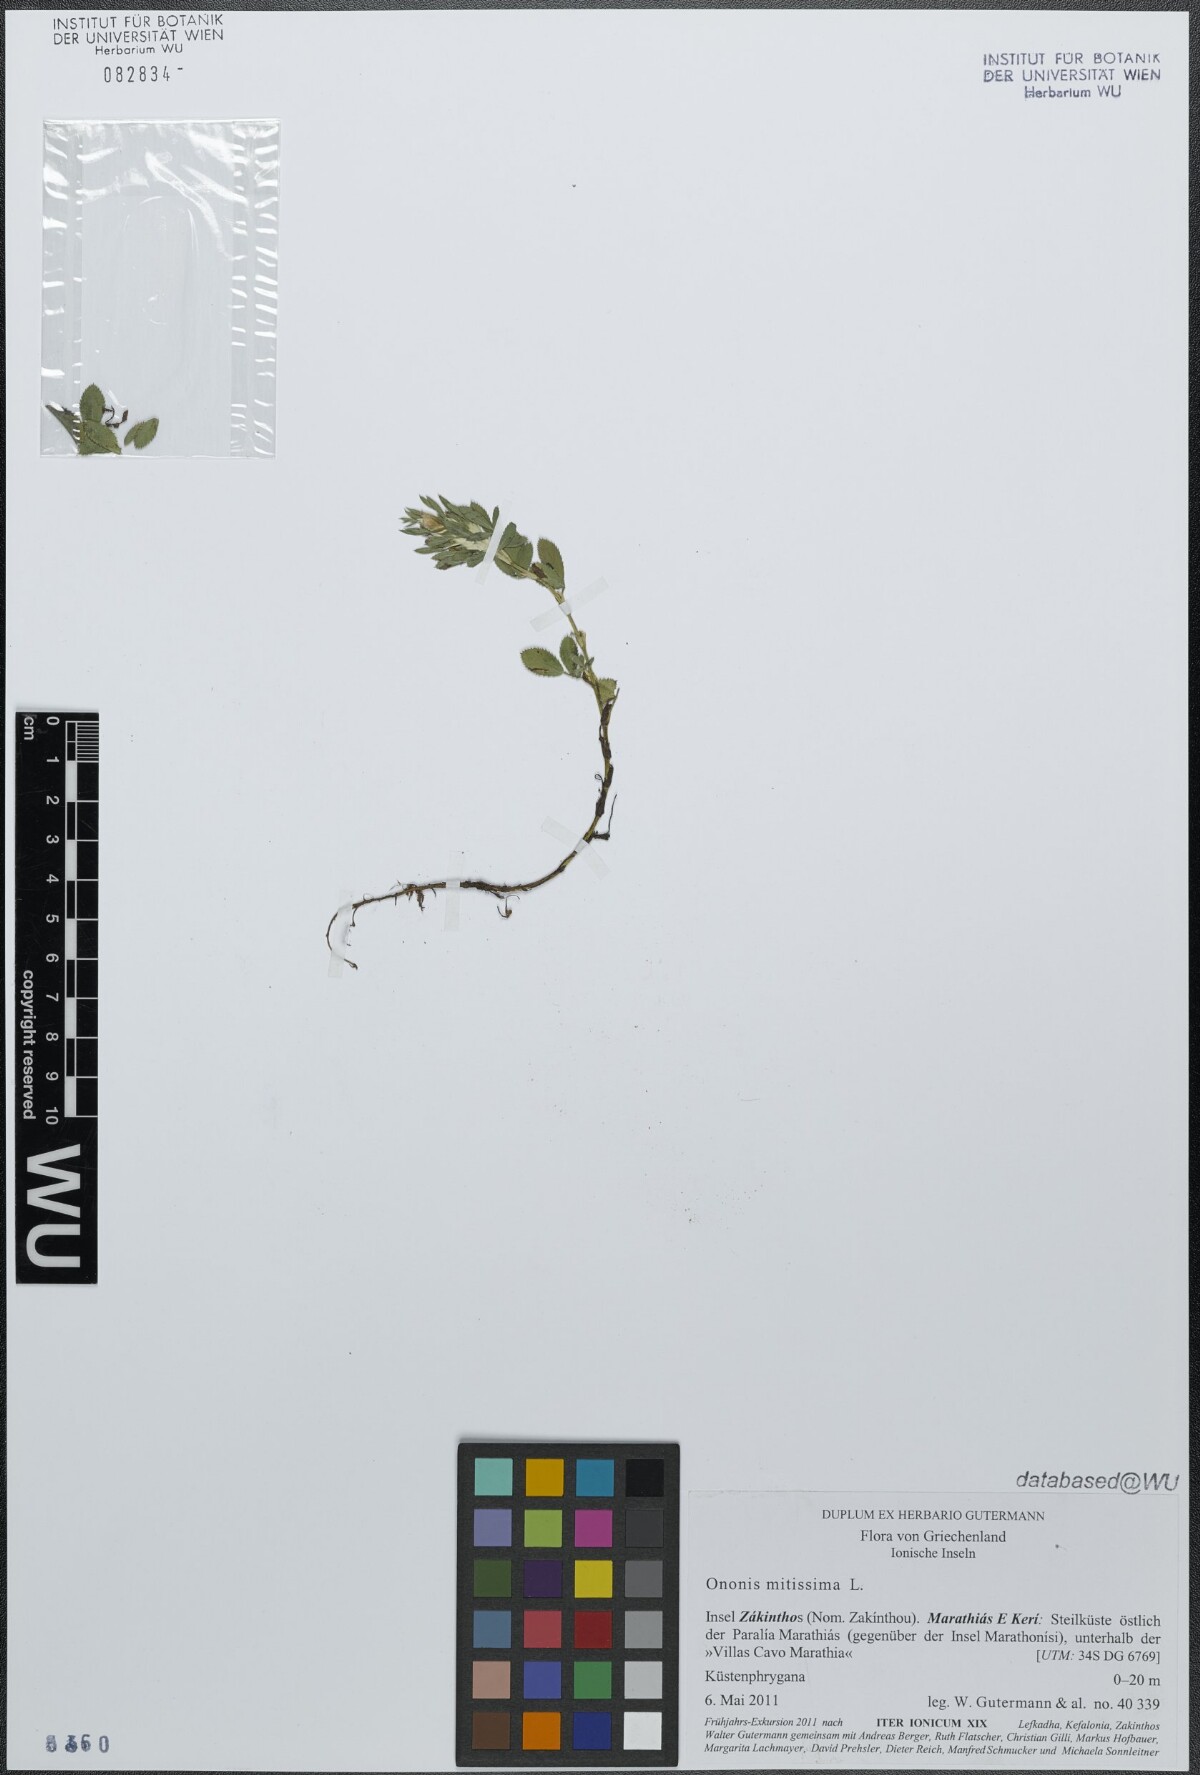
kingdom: Plantae
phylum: Tracheophyta
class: Magnoliopsida
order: Fabales
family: Fabaceae
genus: Ononis
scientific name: Ononis mitissima
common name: Mediterranean restharrow
